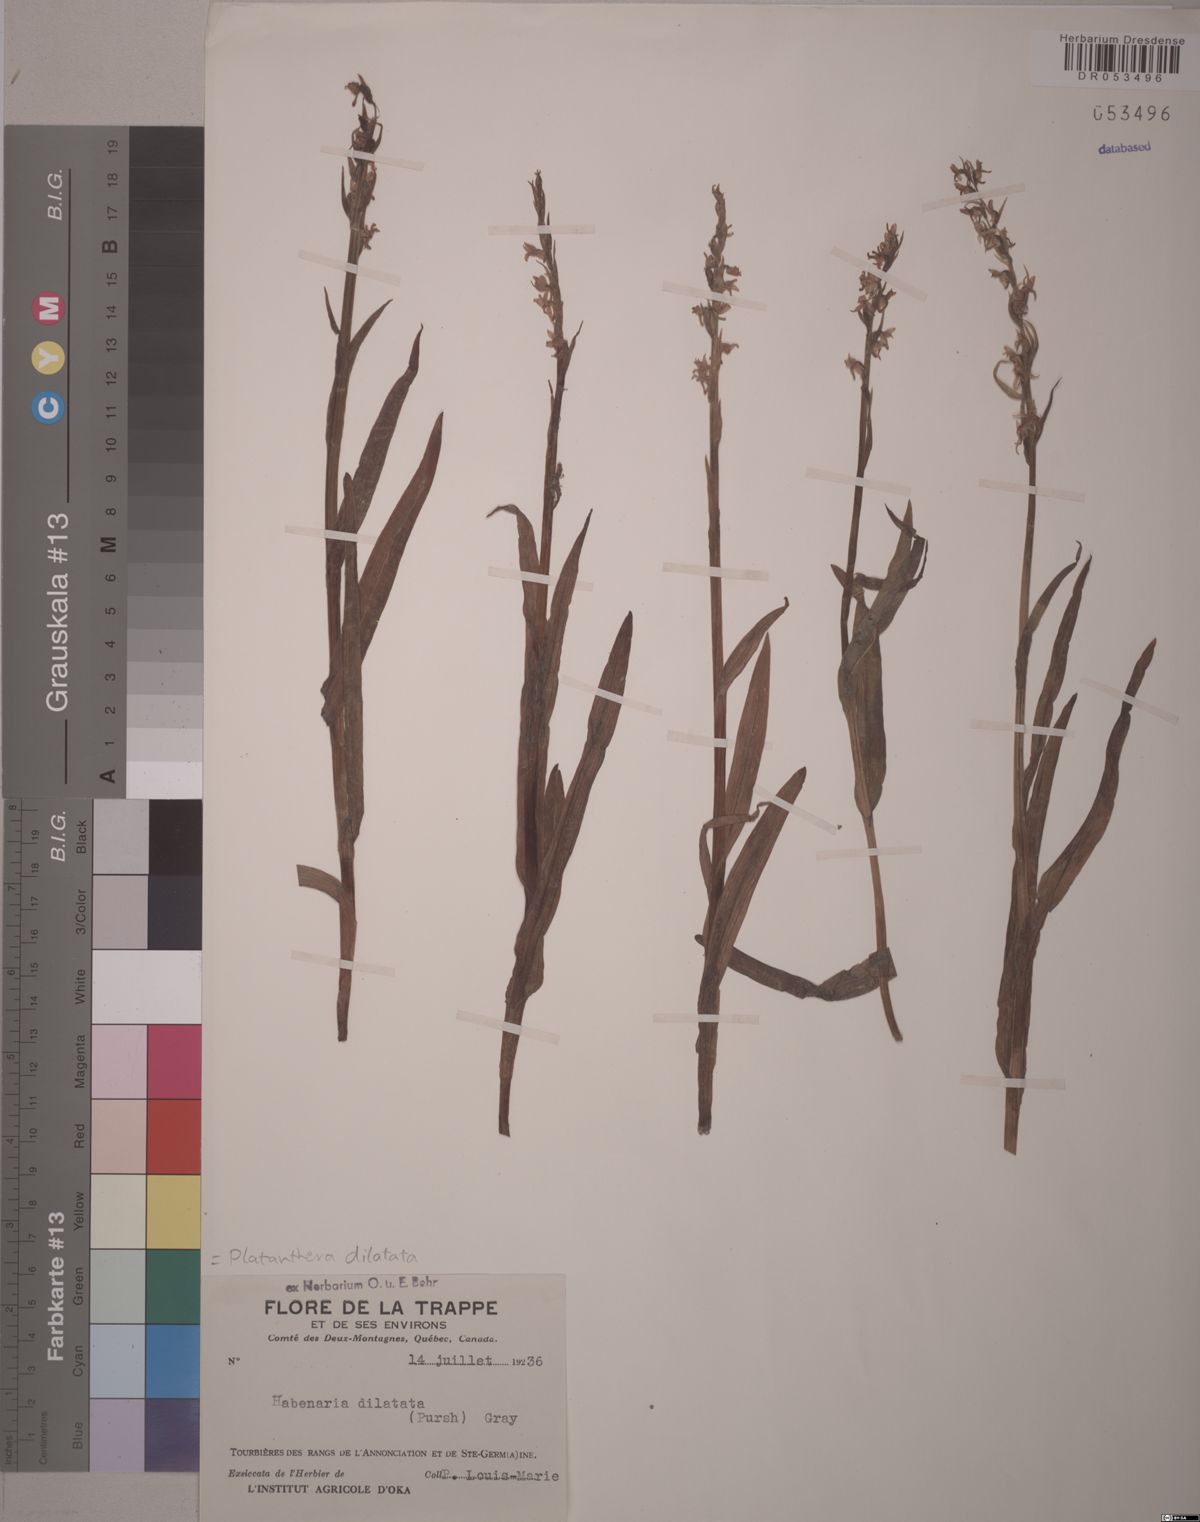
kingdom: Plantae
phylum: Tracheophyta
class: Liliopsida
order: Asparagales
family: Orchidaceae
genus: Platanthera
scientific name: Platanthera dilatata
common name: Bog candles
